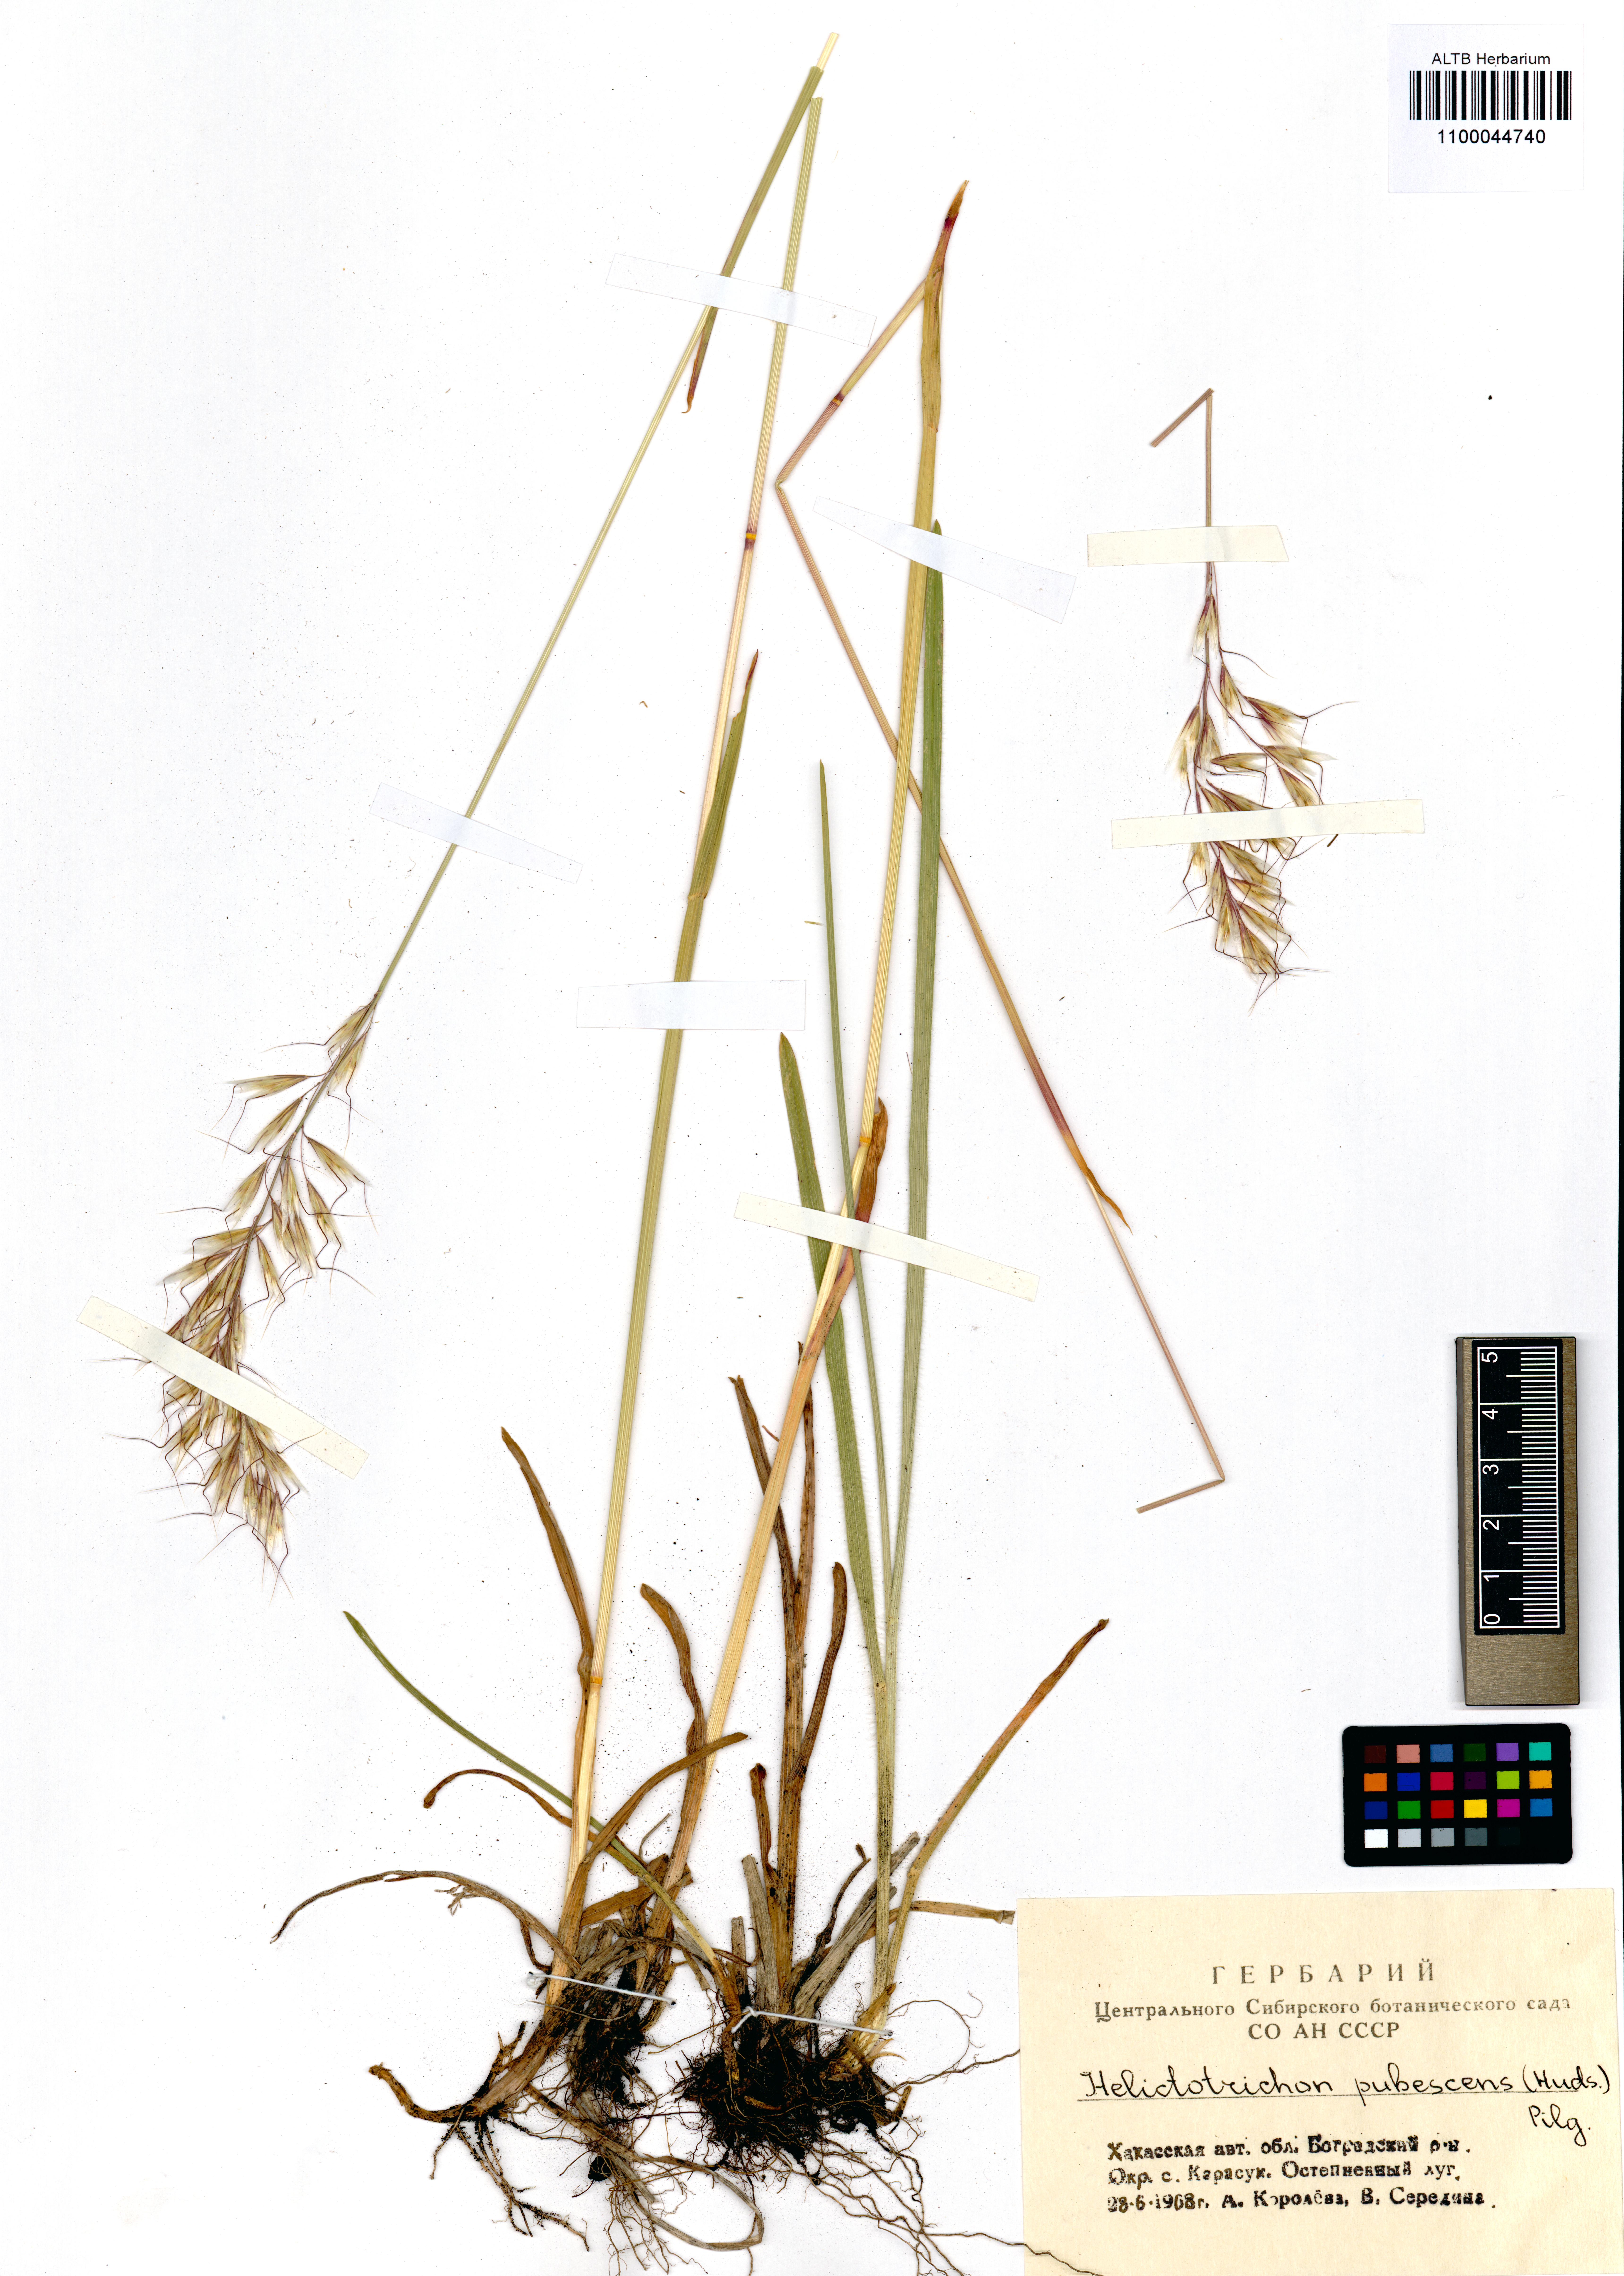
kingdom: Plantae
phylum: Tracheophyta
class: Liliopsida
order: Poales
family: Poaceae
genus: Avenula
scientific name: Avenula pubescens
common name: Downy alpine oatgrass
